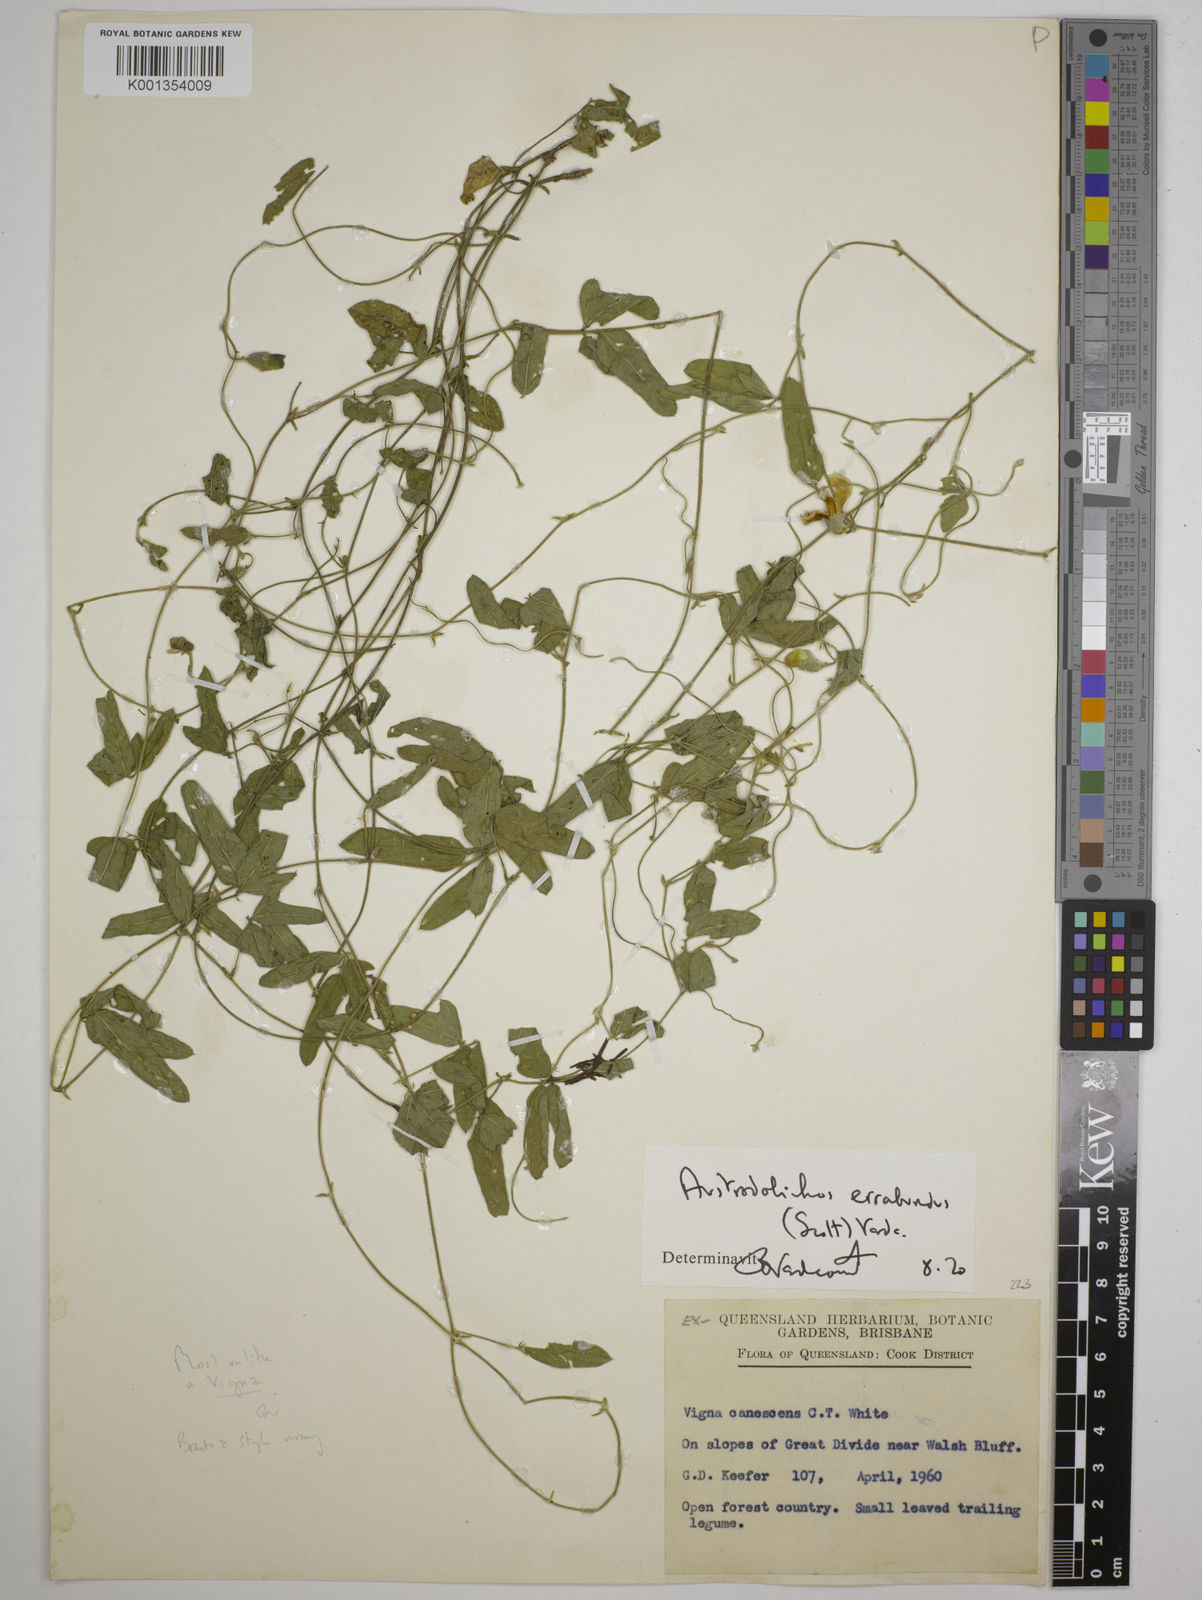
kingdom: Plantae
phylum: Tracheophyta
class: Magnoliopsida
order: Fabales
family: Fabaceae
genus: Austrodolichos
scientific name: Austrodolichos errabundus
